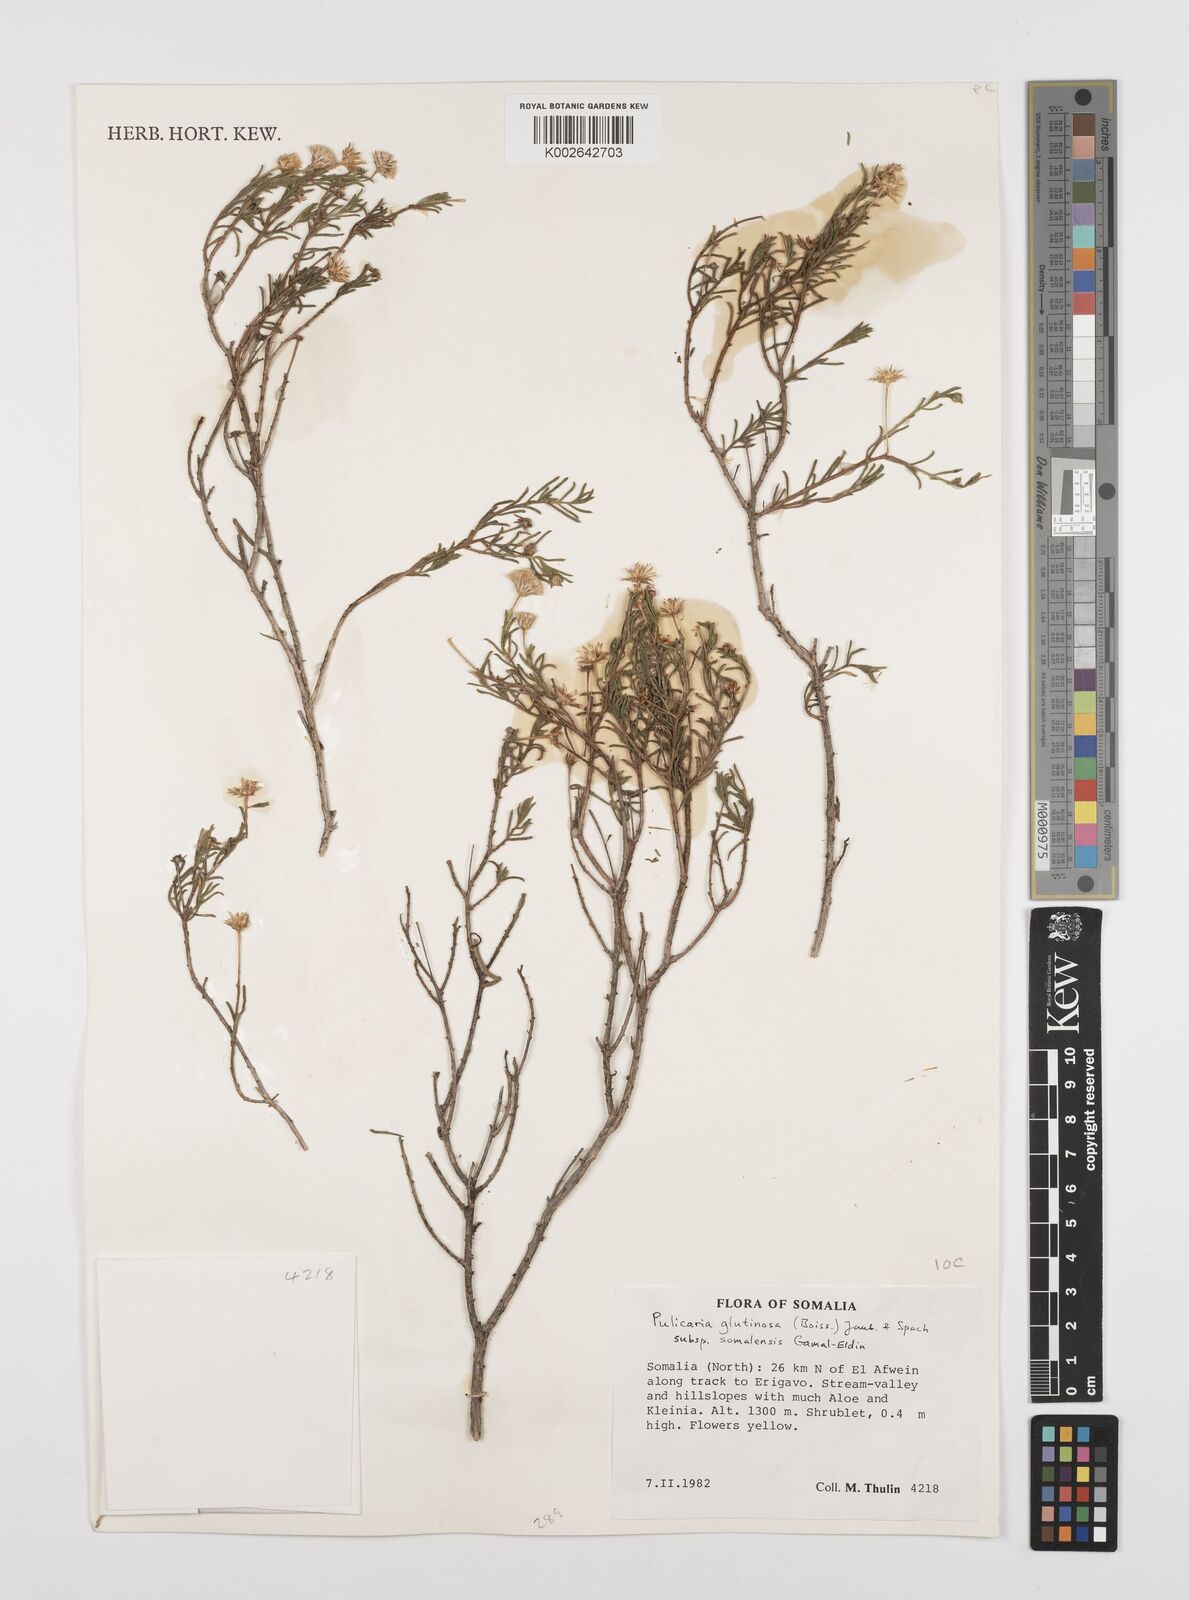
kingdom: Plantae
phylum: Tracheophyta
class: Magnoliopsida
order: Asterales
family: Asteraceae
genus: Pulicaria
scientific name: Pulicaria glutinosa
